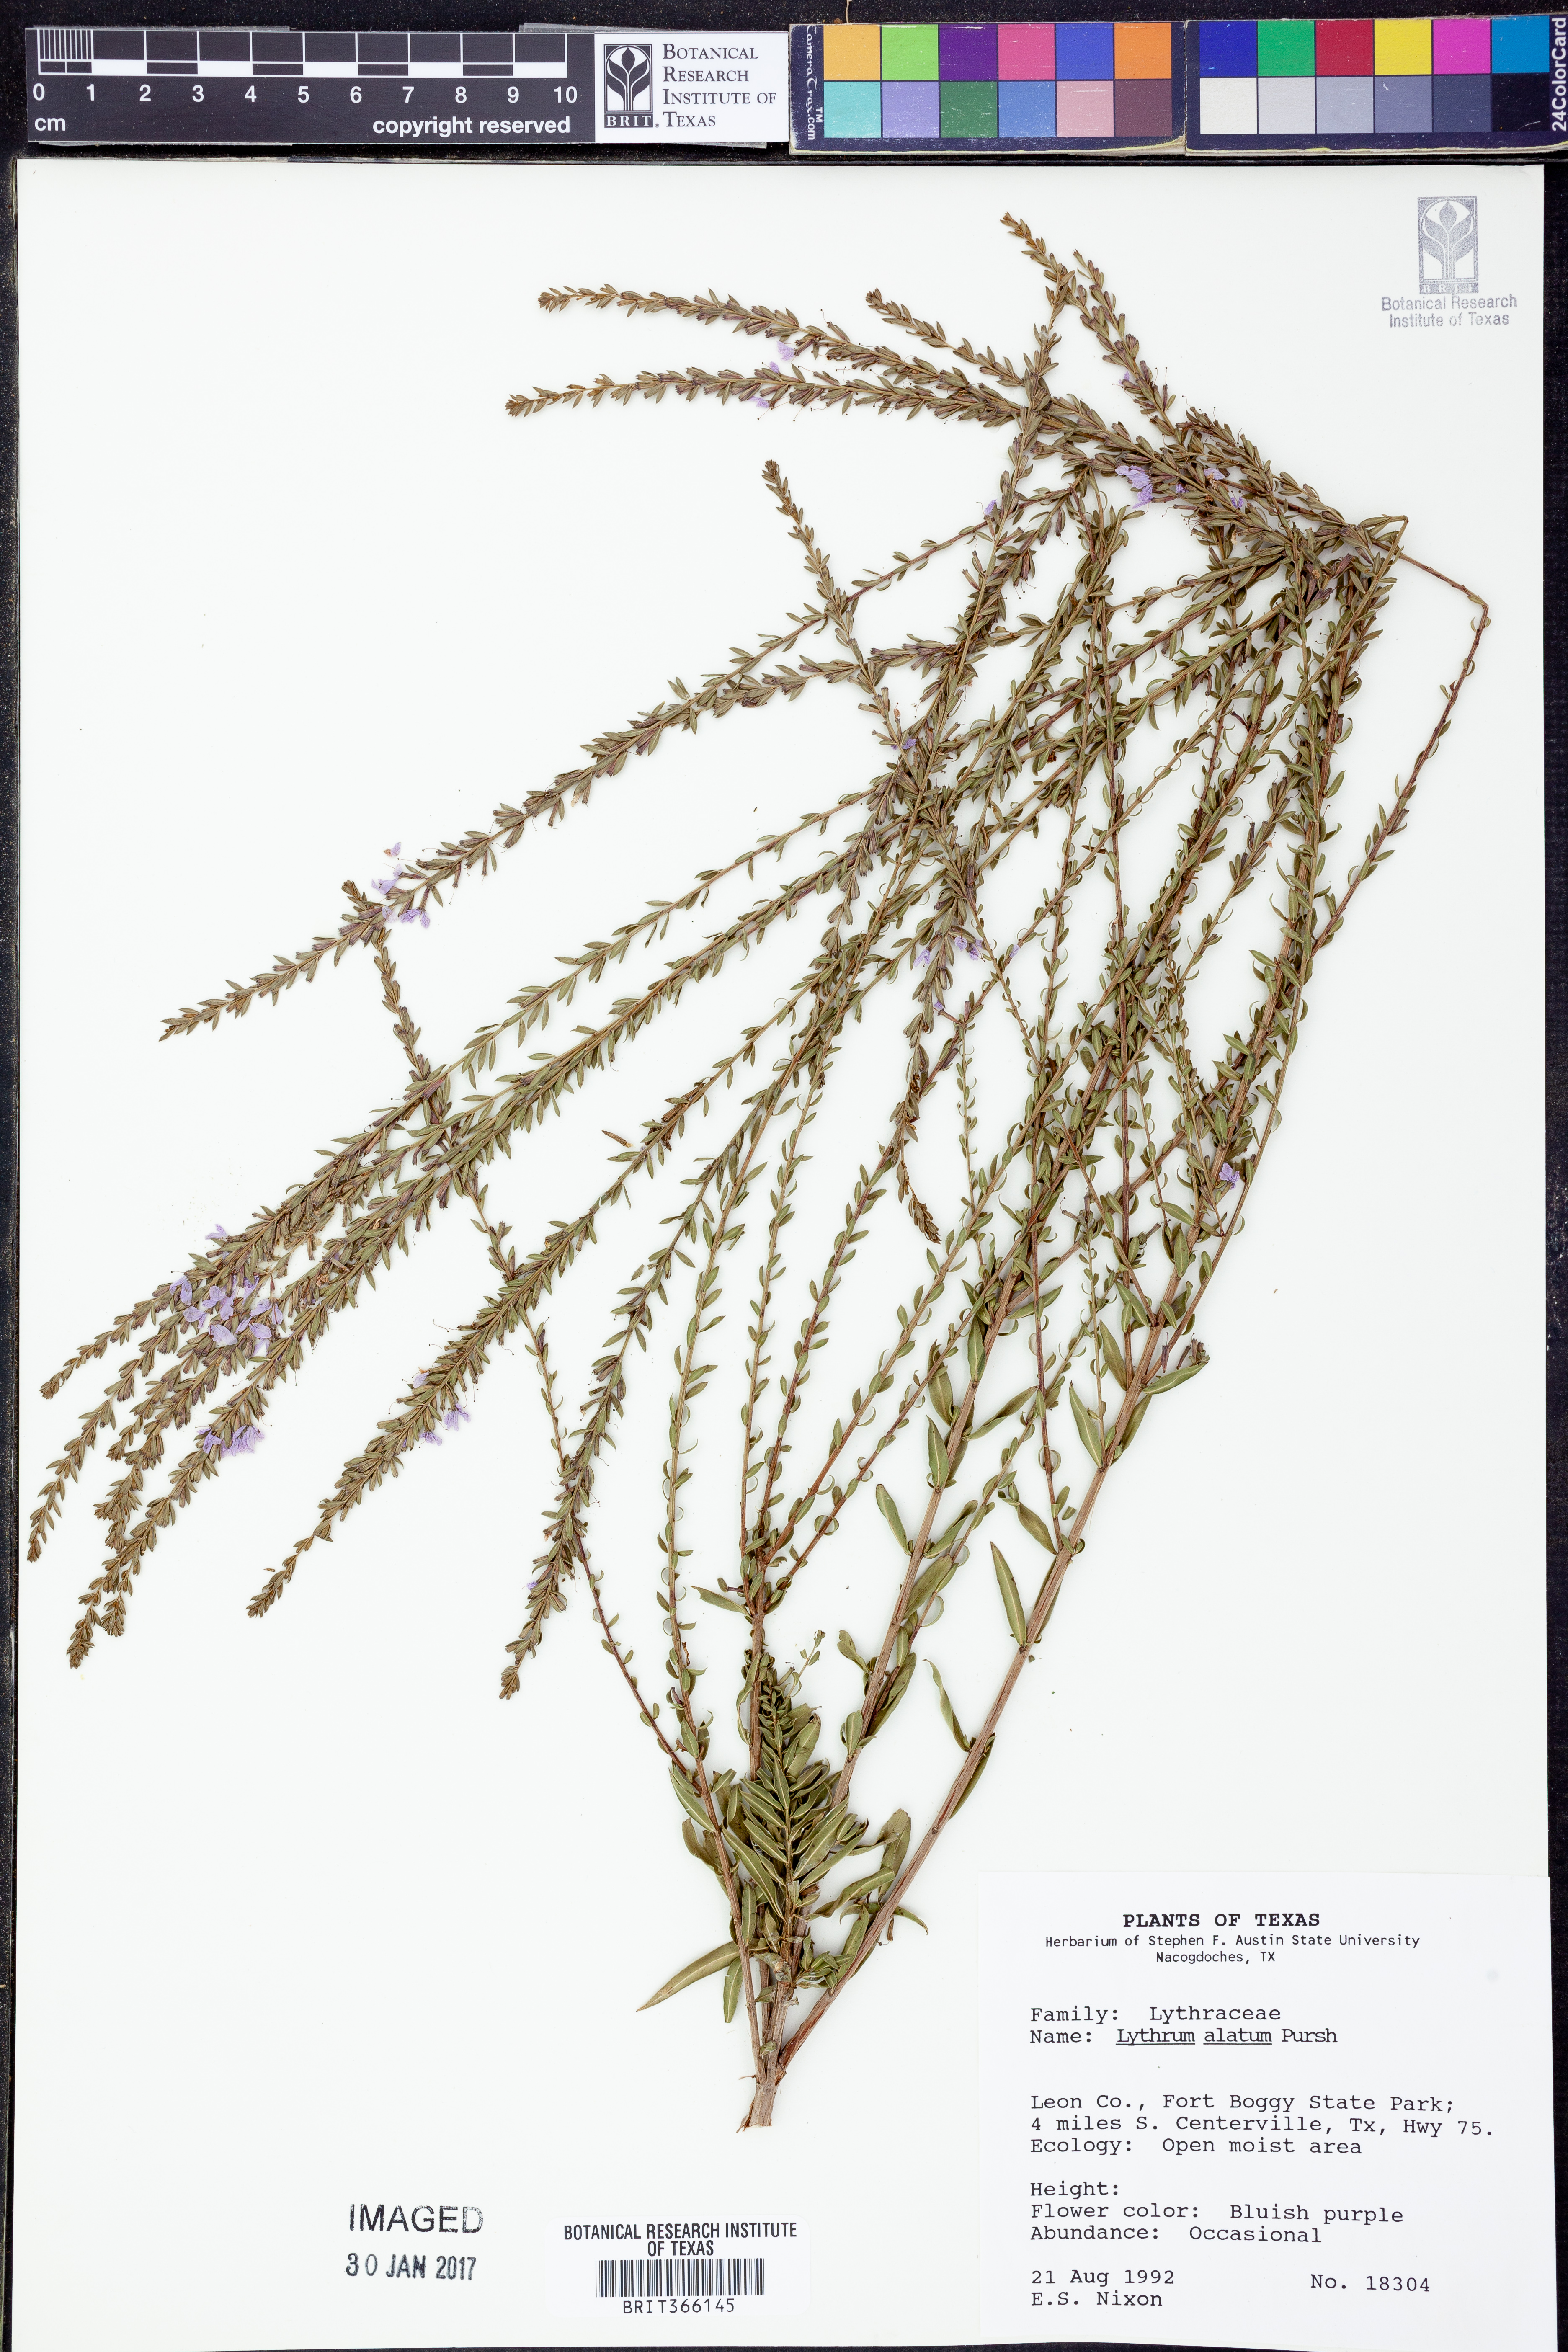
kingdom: Plantae
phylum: Tracheophyta
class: Magnoliopsida
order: Myrtales
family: Lythraceae
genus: Lythrum
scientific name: Lythrum alatum
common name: Winged loosestrife
